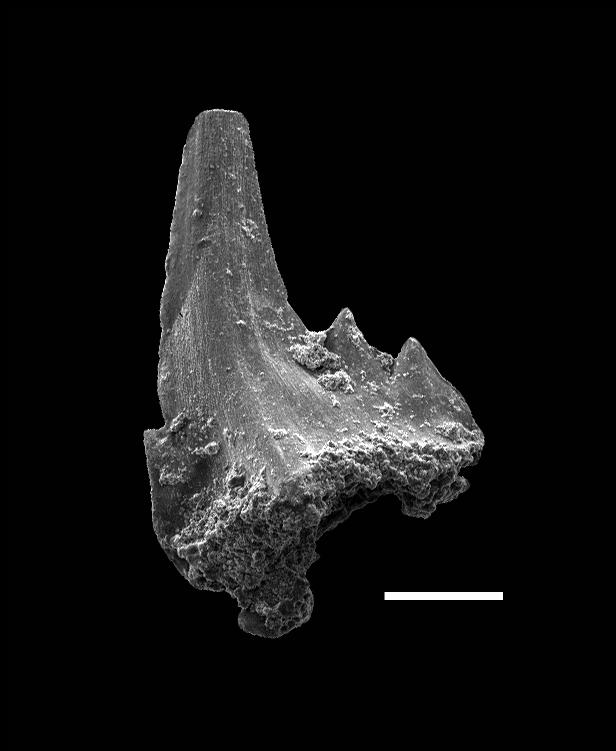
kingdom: Animalia
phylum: Chordata
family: Balognathidae
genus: Pterospathodus
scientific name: Pterospathodus eopennatus
